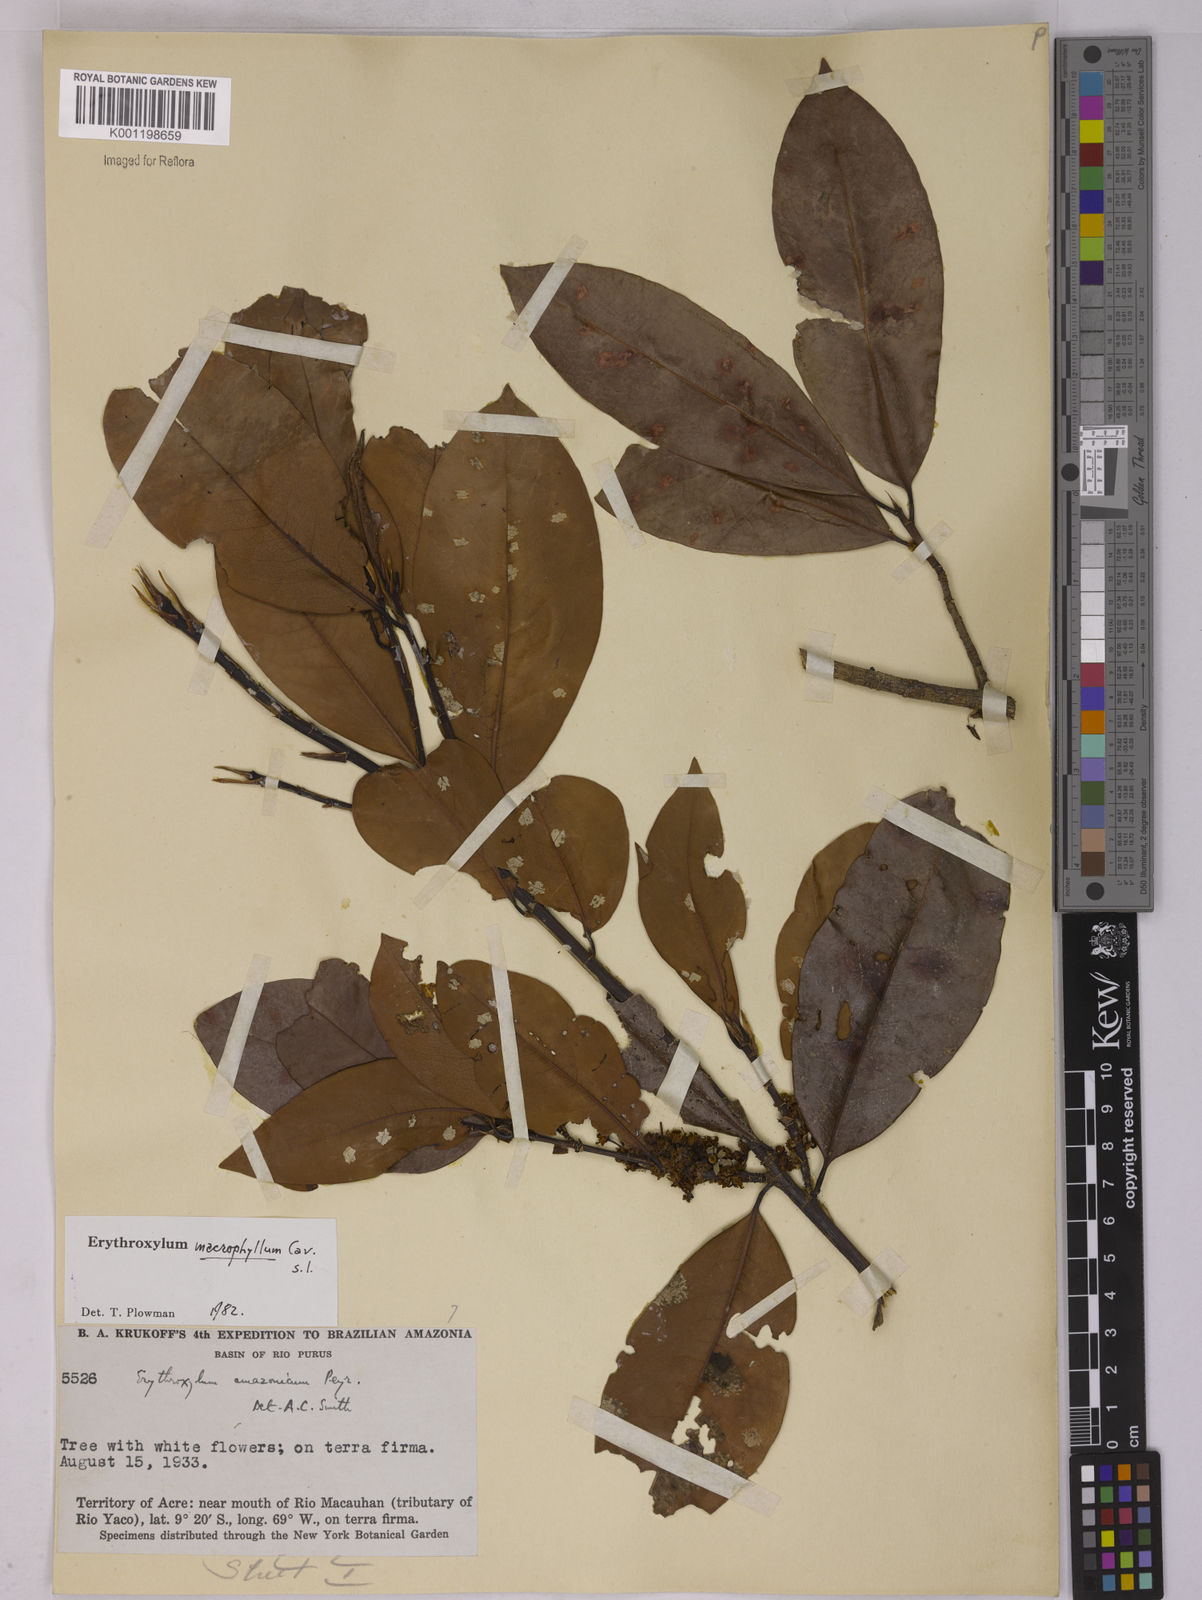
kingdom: Plantae
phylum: Tracheophyta
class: Magnoliopsida
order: Malpighiales
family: Erythroxylaceae
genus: Erythroxylum
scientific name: Erythroxylum macrophyllum
